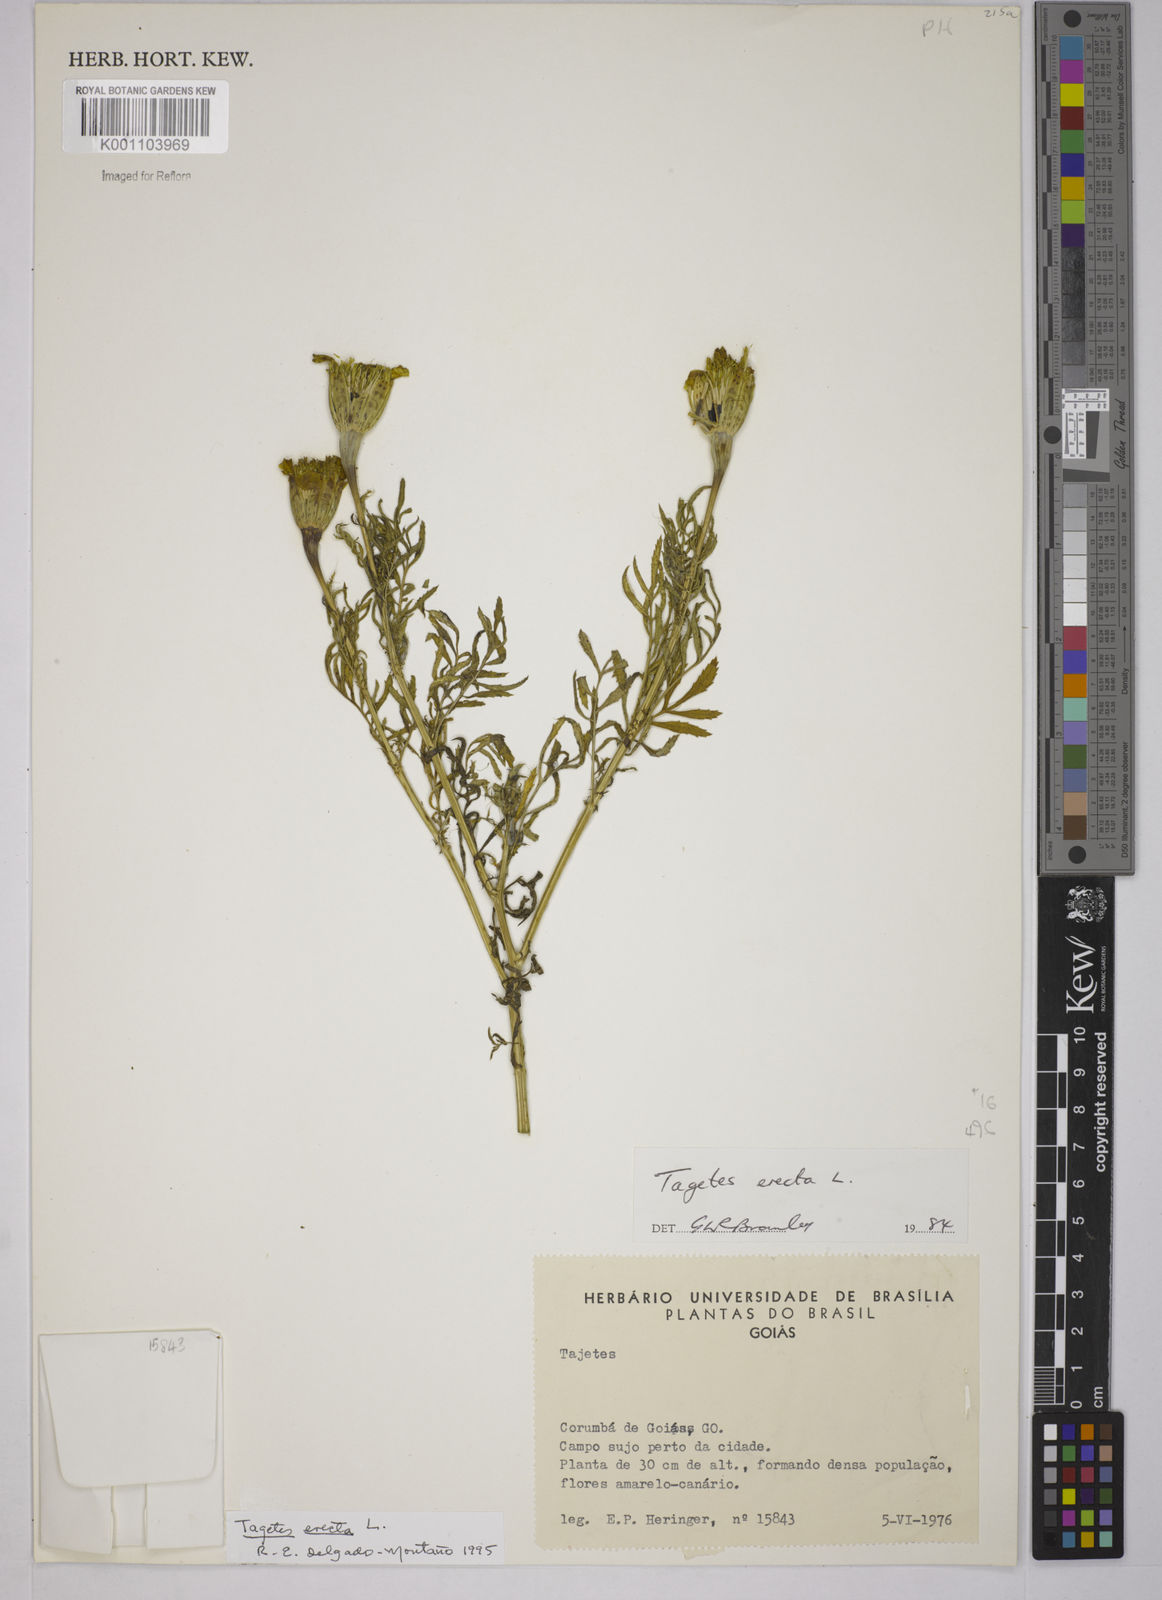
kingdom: Plantae
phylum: Tracheophyta
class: Magnoliopsida
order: Asterales
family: Asteraceae
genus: Tagetes
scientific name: Tagetes erecta
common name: African marigold
